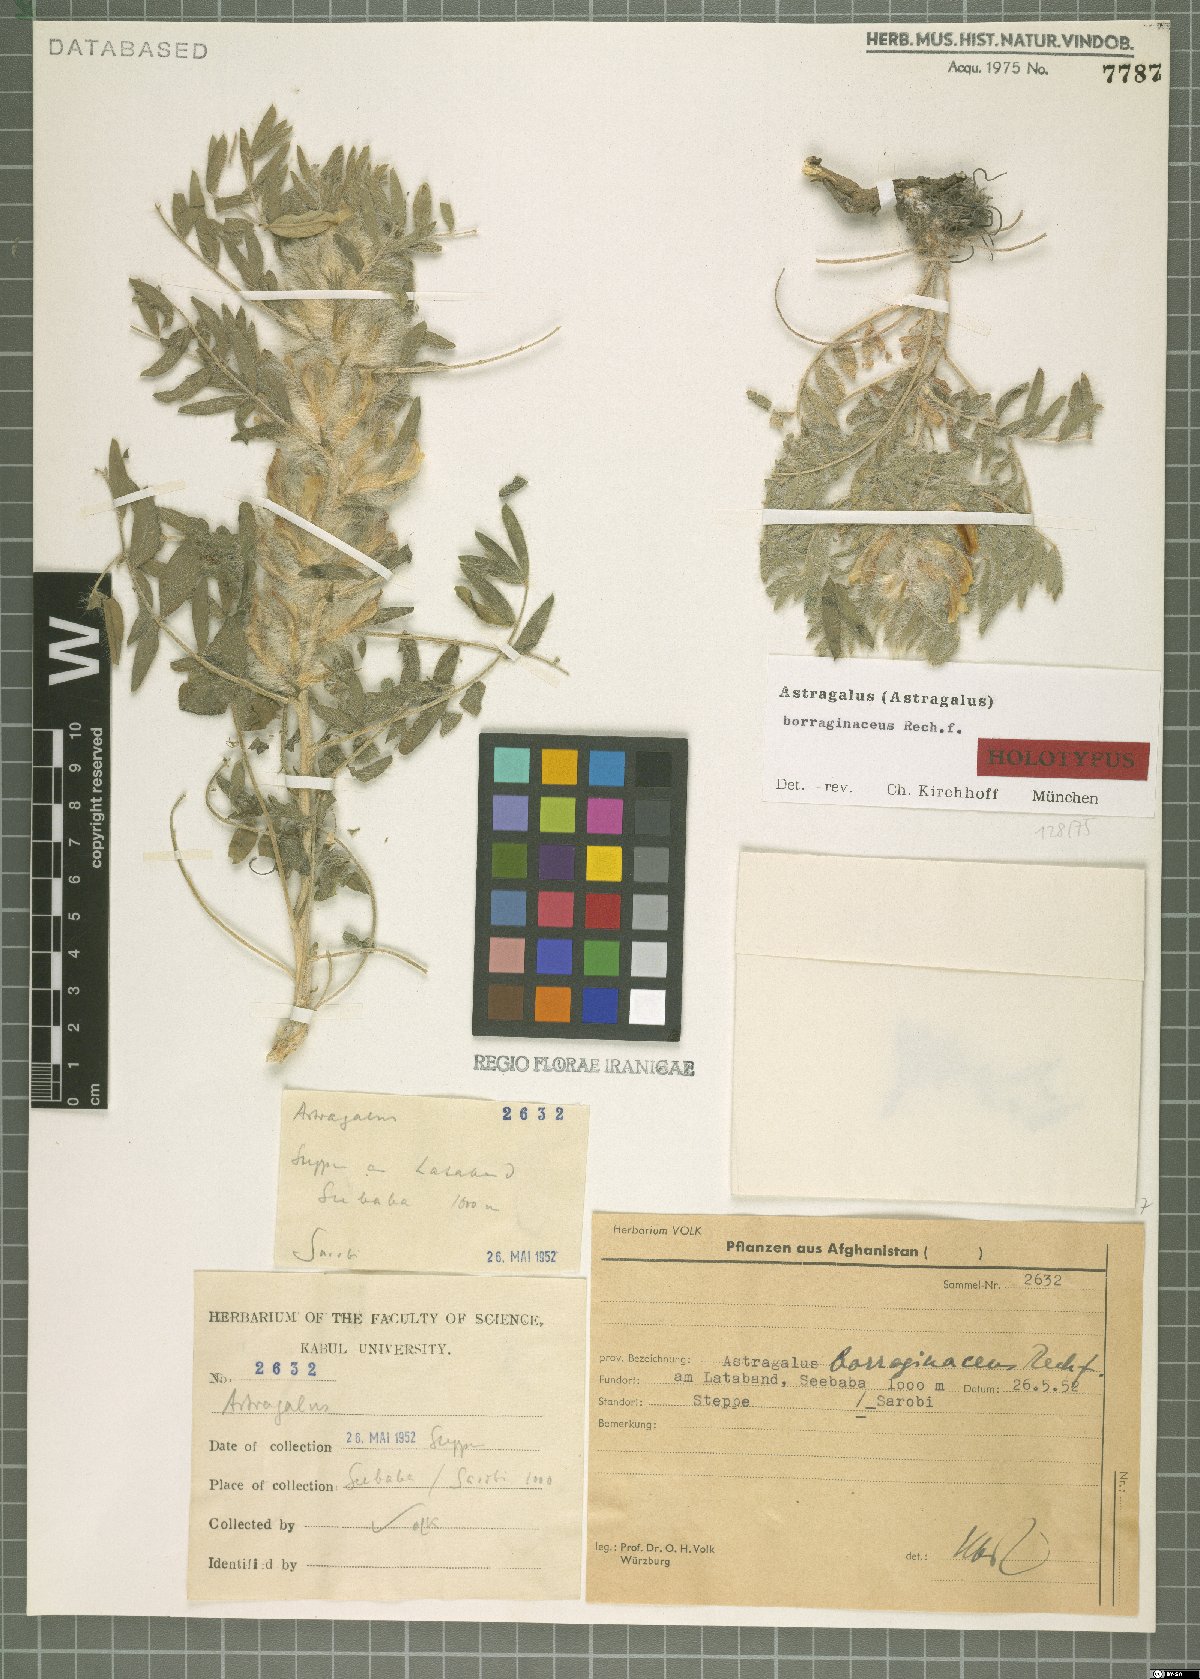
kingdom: Plantae
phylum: Tracheophyta
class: Magnoliopsida
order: Fabales
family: Fabaceae
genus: Astragalus
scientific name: Astragalus borraginaceus
